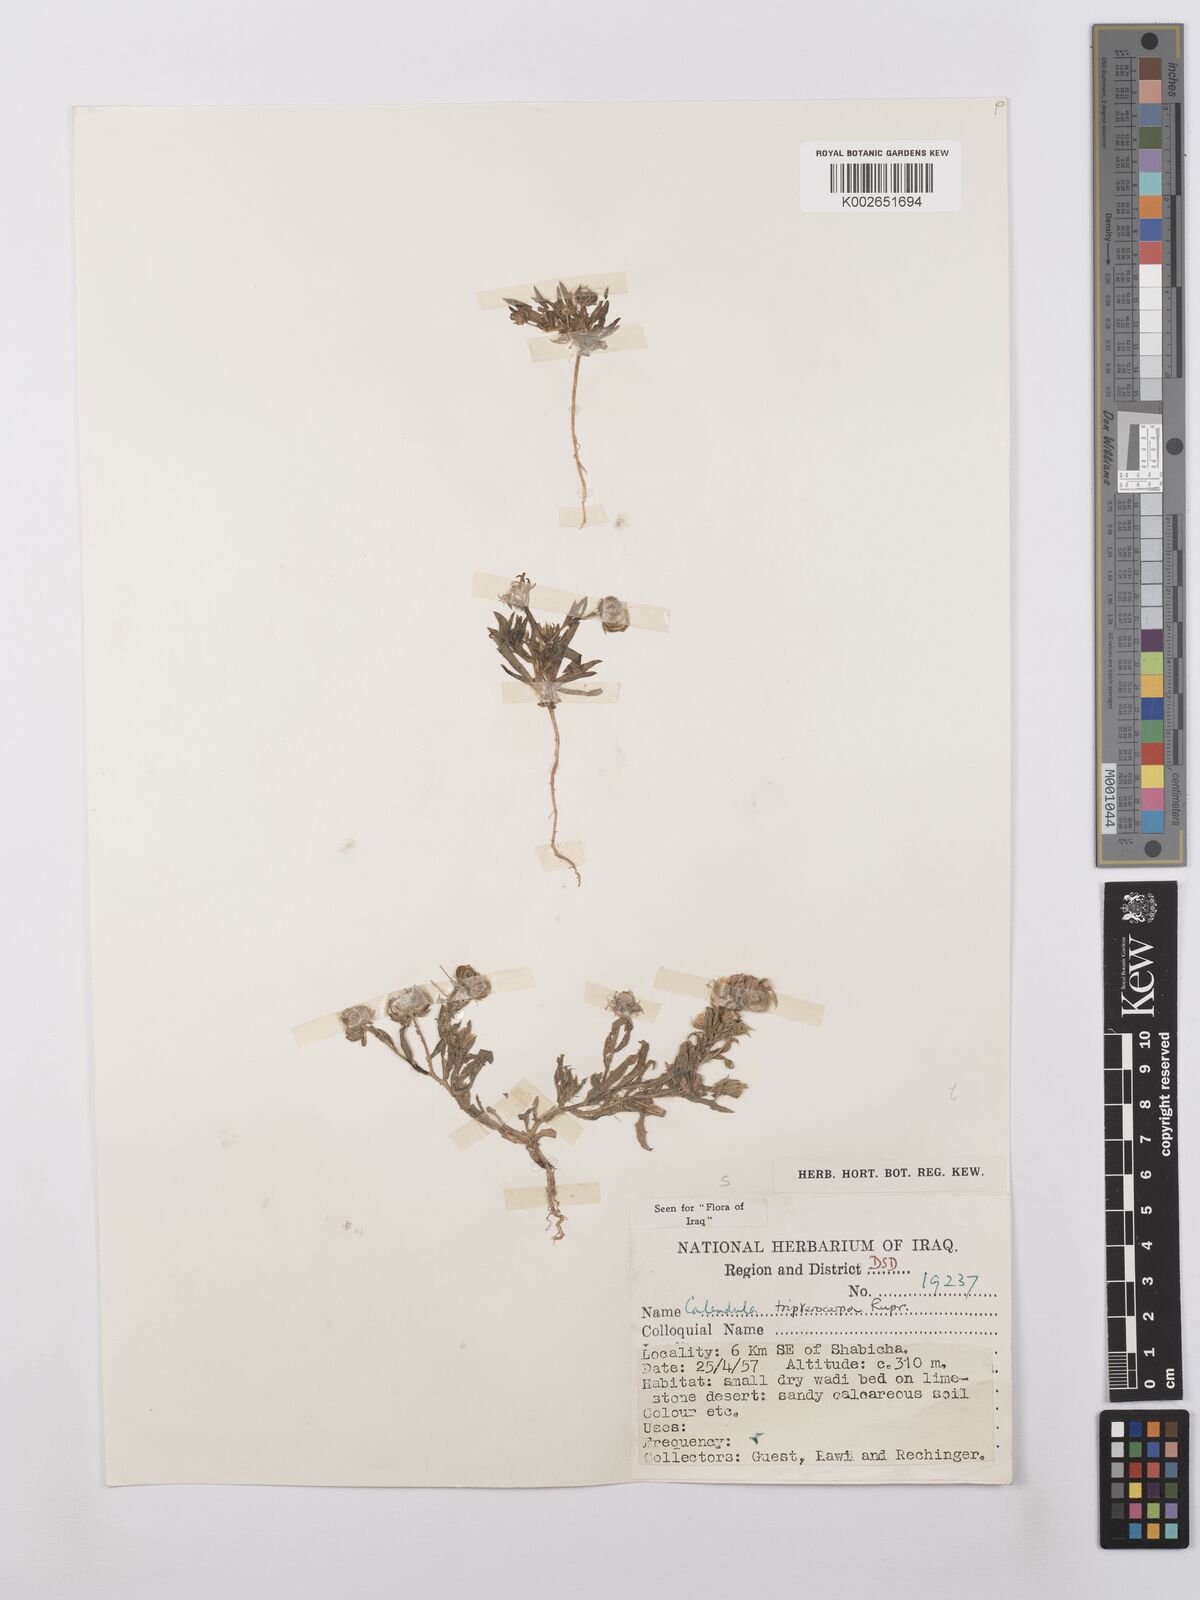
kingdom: Plantae
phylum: Tracheophyta
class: Magnoliopsida
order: Asterales
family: Asteraceae
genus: Calendula
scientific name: Calendula tripterocarpa
